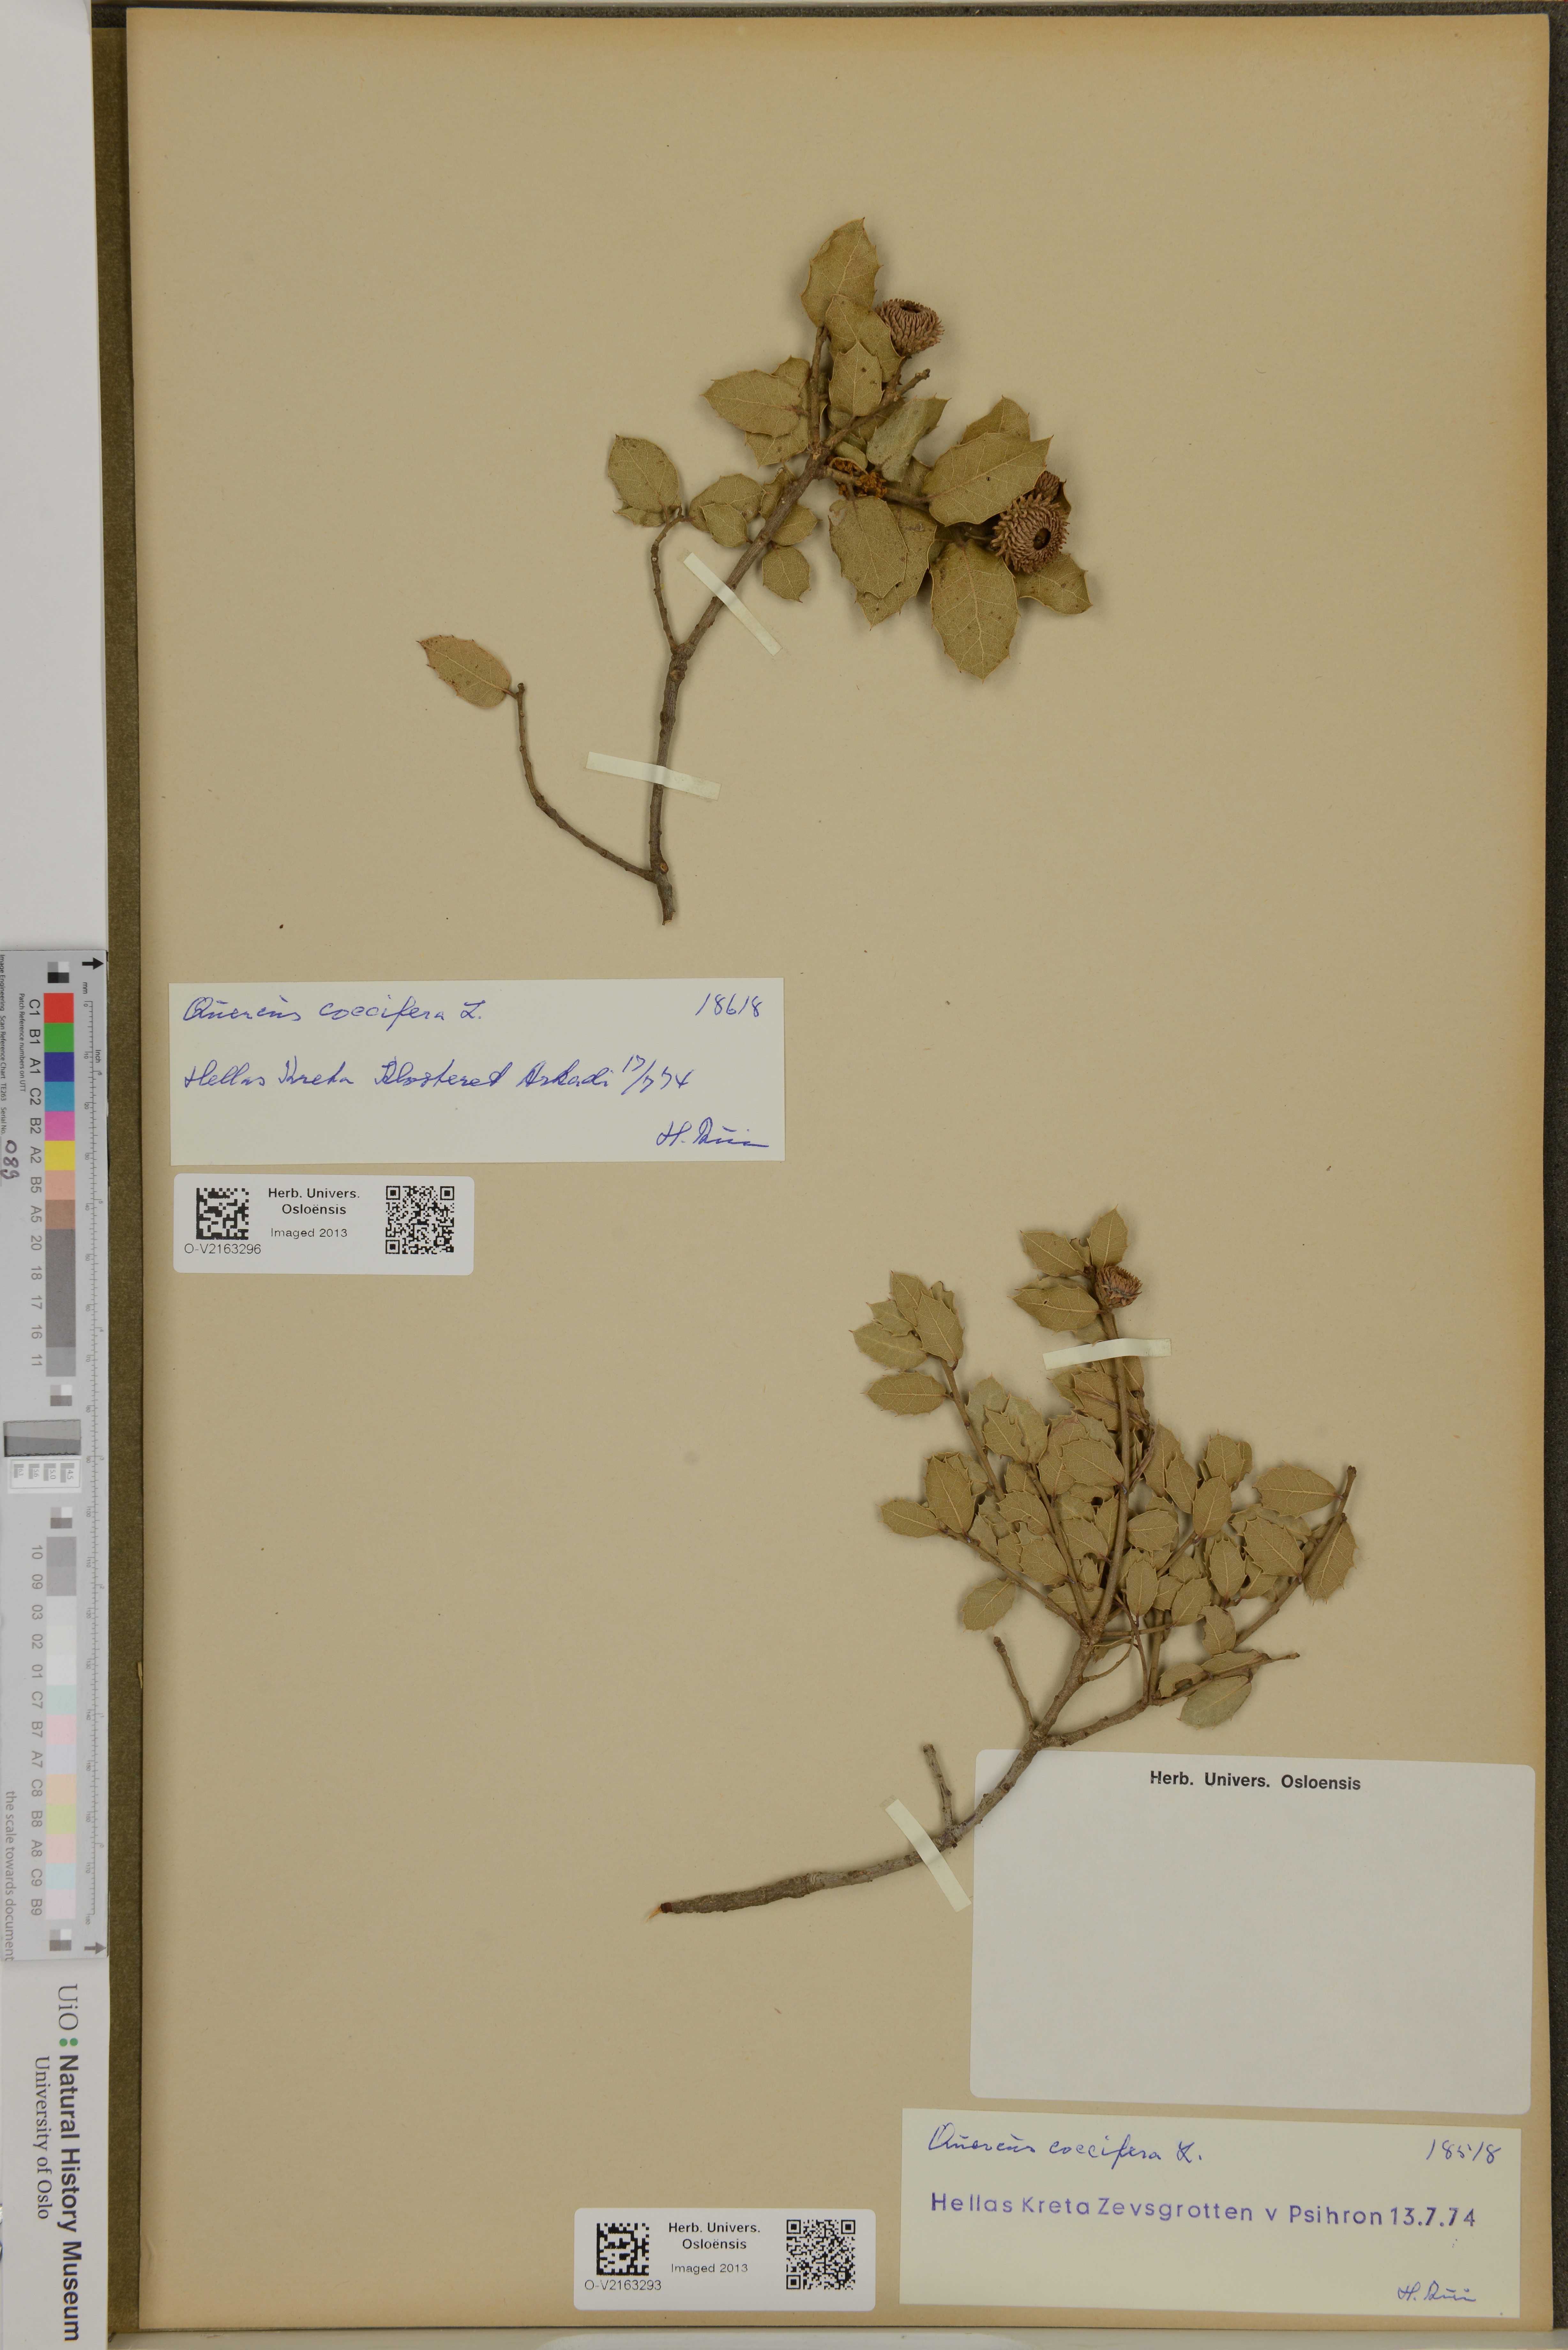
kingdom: Plantae
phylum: Tracheophyta
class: Magnoliopsida
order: Fagales
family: Fagaceae
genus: Quercus
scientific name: Quercus coccifera
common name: Kermes oak
